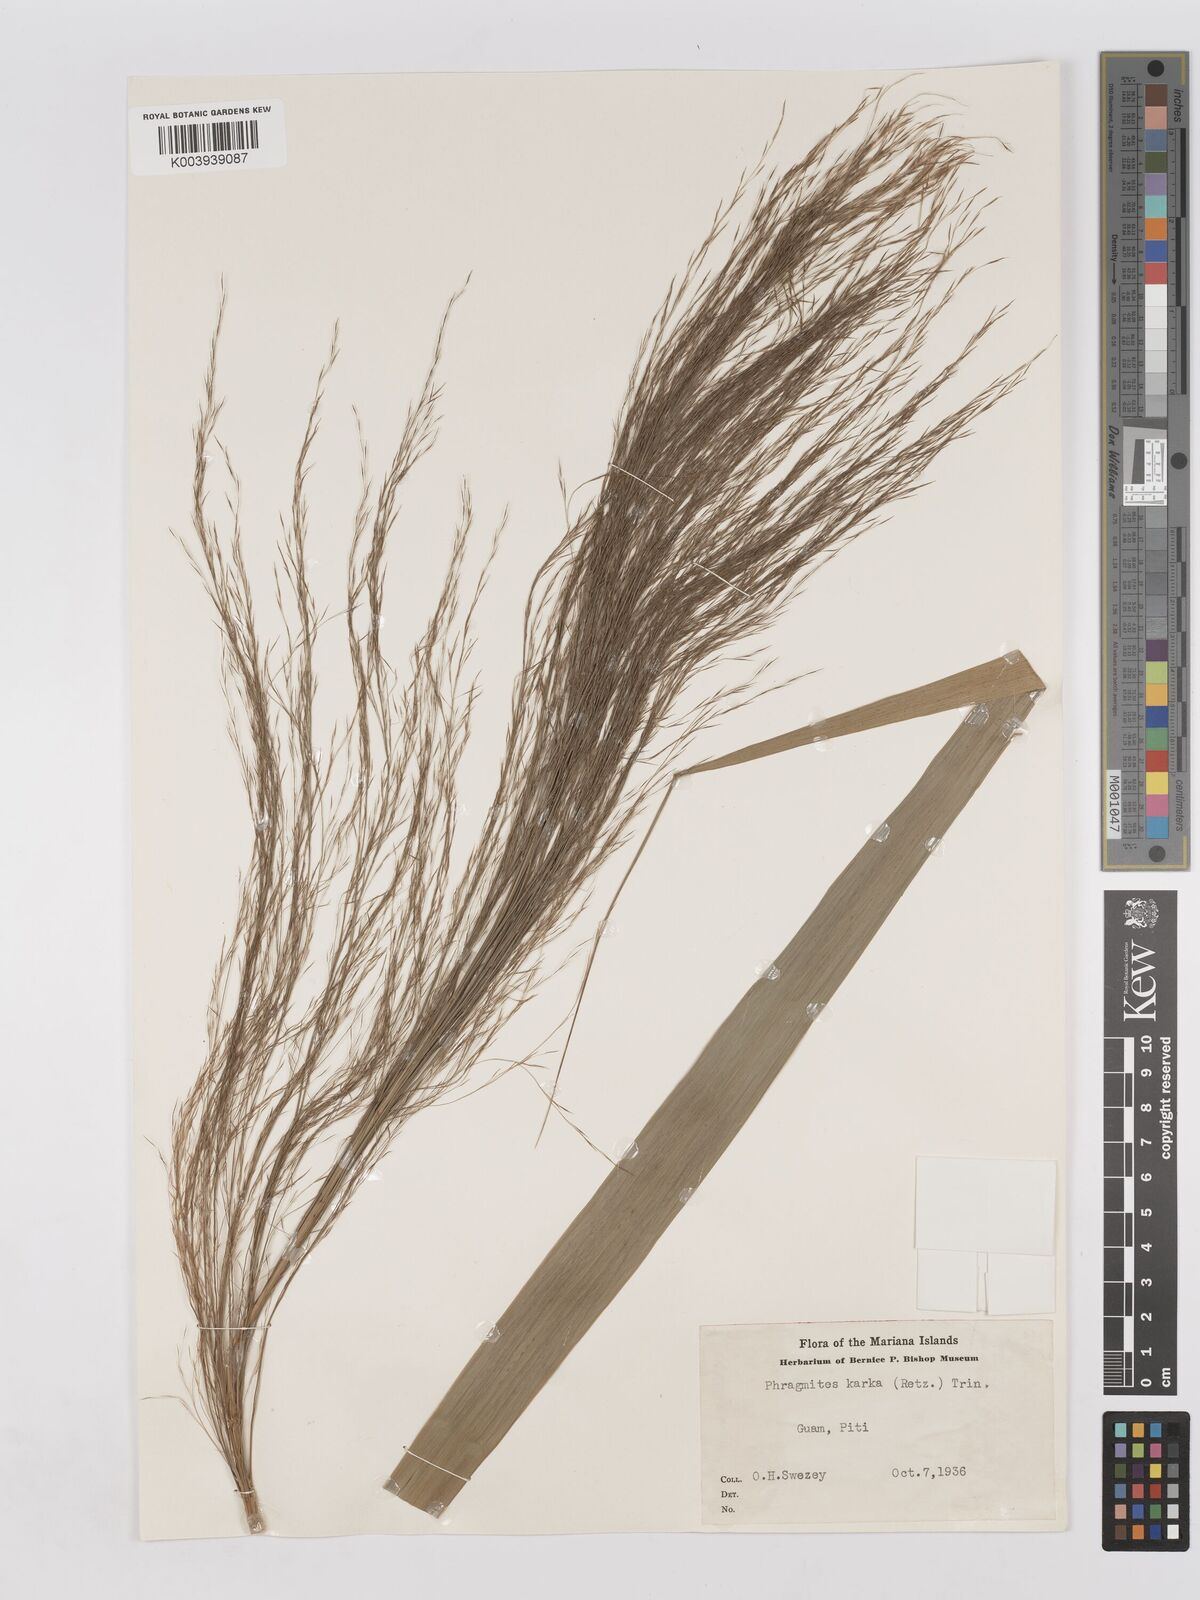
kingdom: Plantae
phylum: Tracheophyta
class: Liliopsida
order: Poales
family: Poaceae
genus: Phragmites
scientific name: Phragmites karka
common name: Tropical reed
